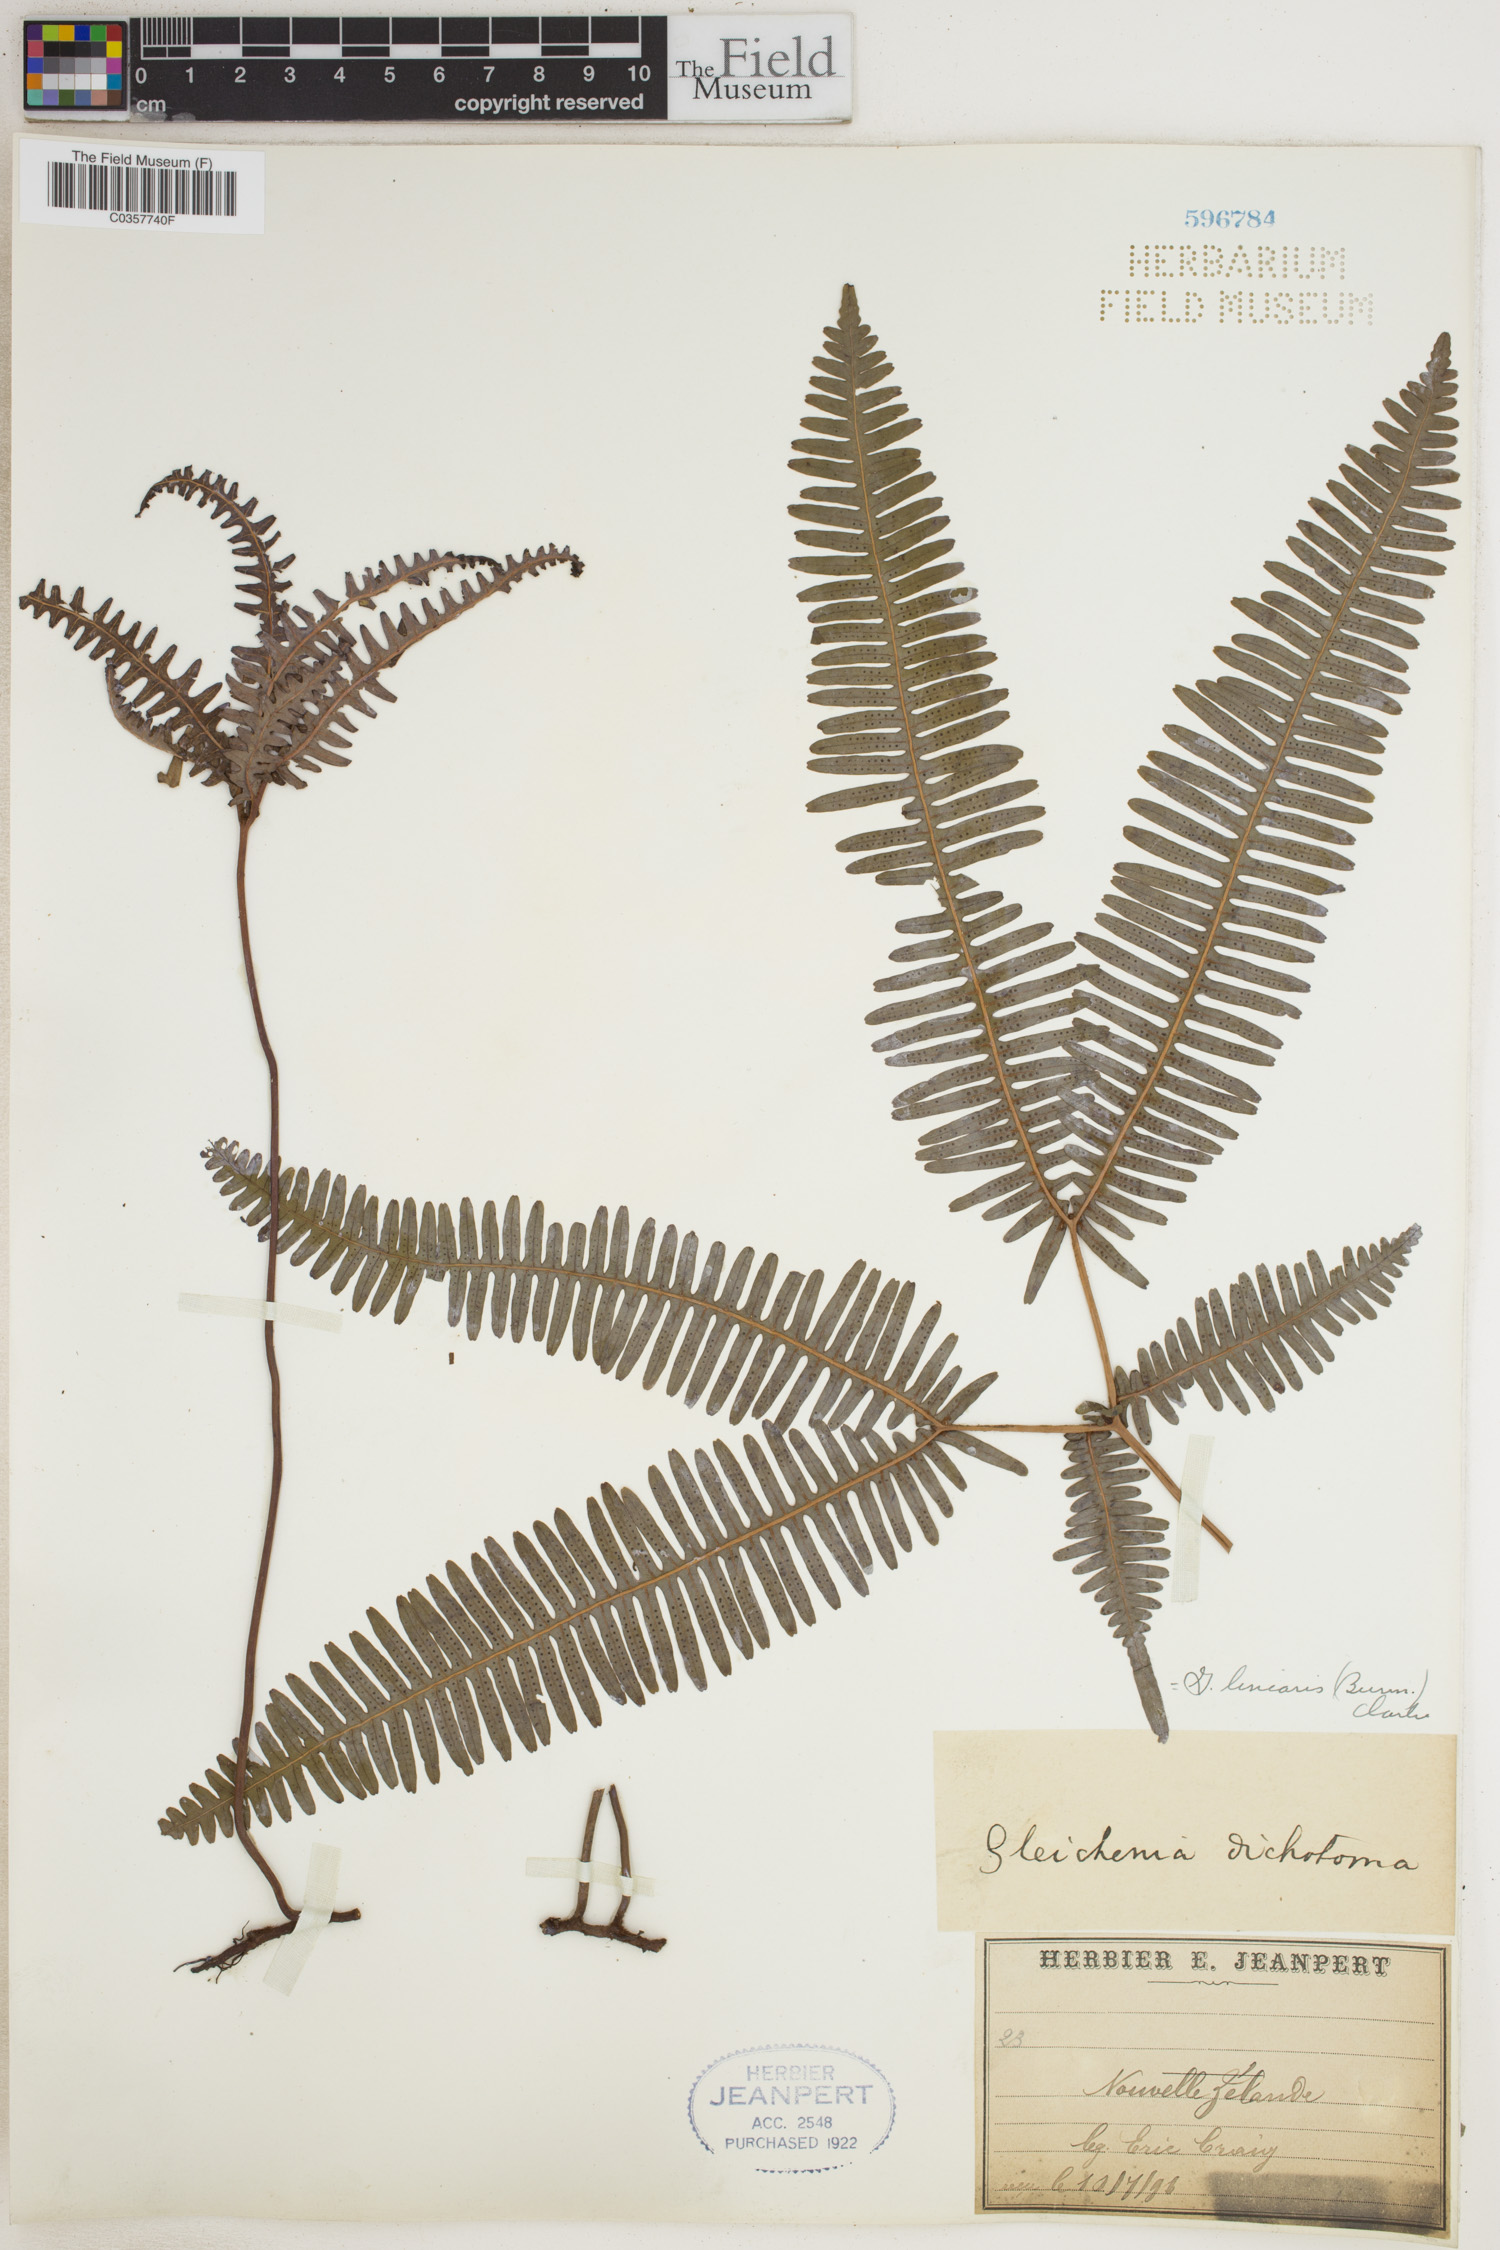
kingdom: Plantae
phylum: Tracheophyta
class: Polypodiopsida
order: Gleicheniales
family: Gleicheniaceae
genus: Dicranopteris
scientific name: Dicranopteris linearis
